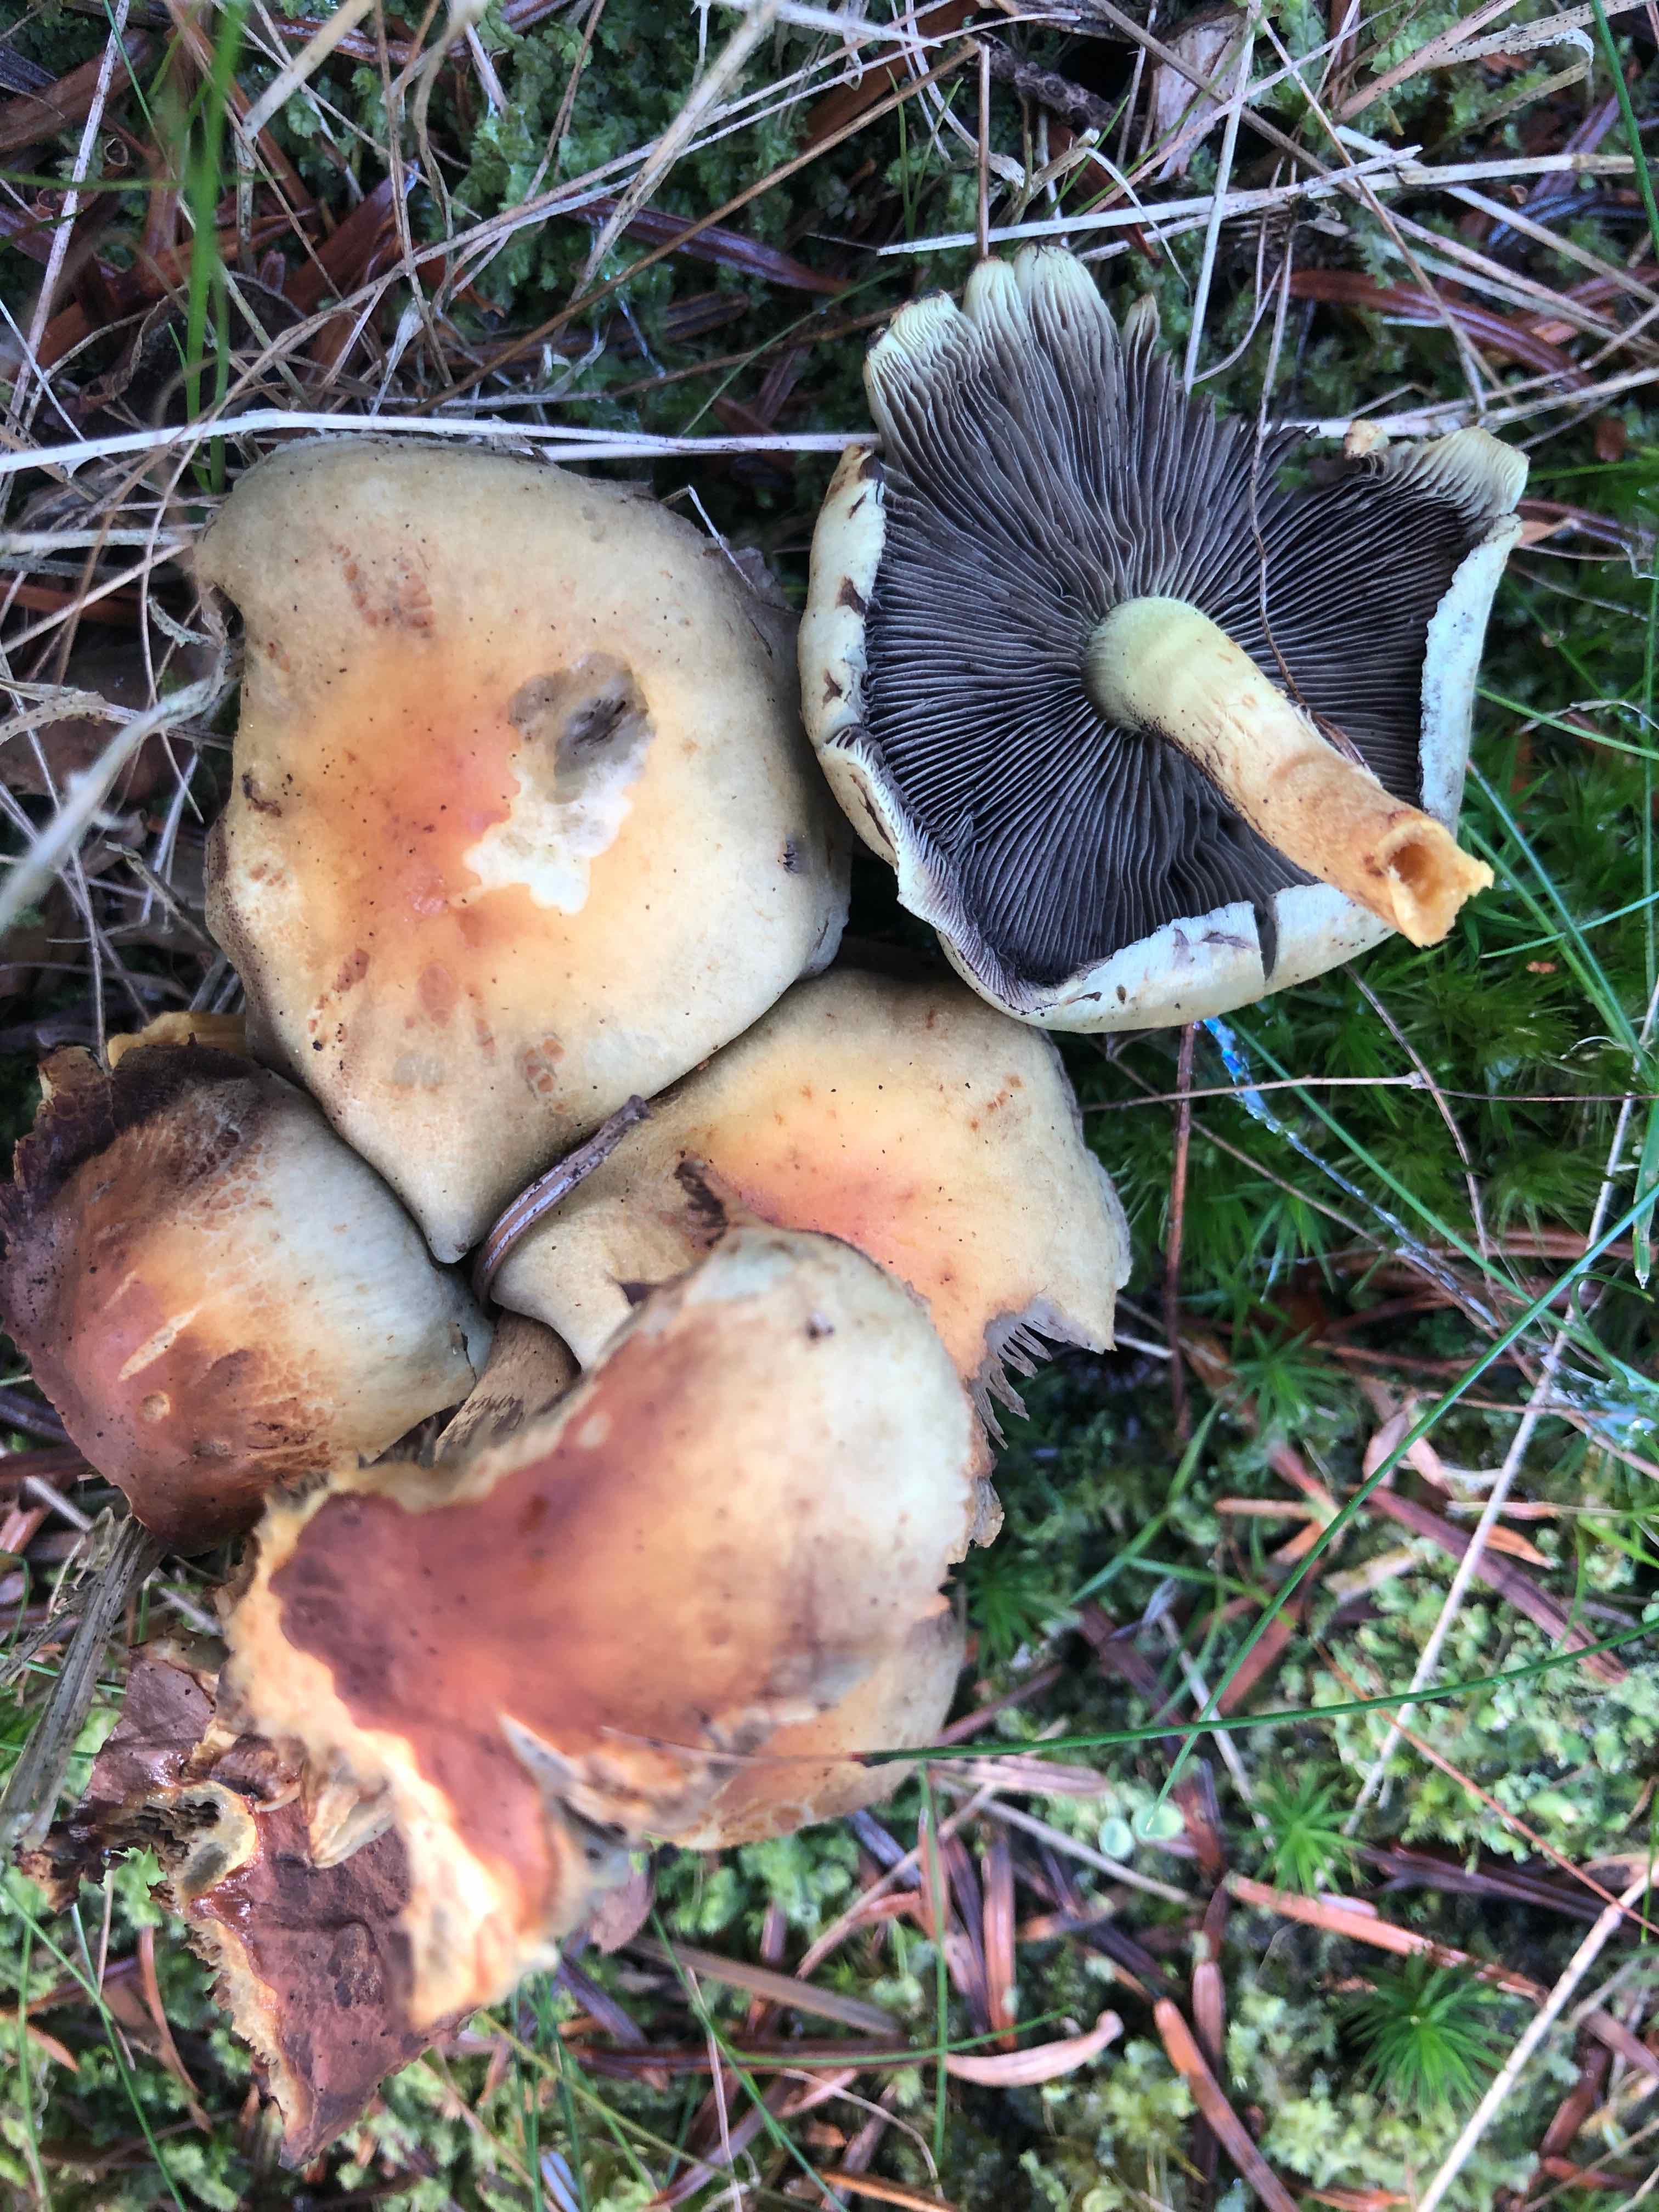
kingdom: Fungi
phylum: Basidiomycota
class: Agaricomycetes
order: Agaricales
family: Strophariaceae
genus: Hypholoma
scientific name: Hypholoma fasciculare
